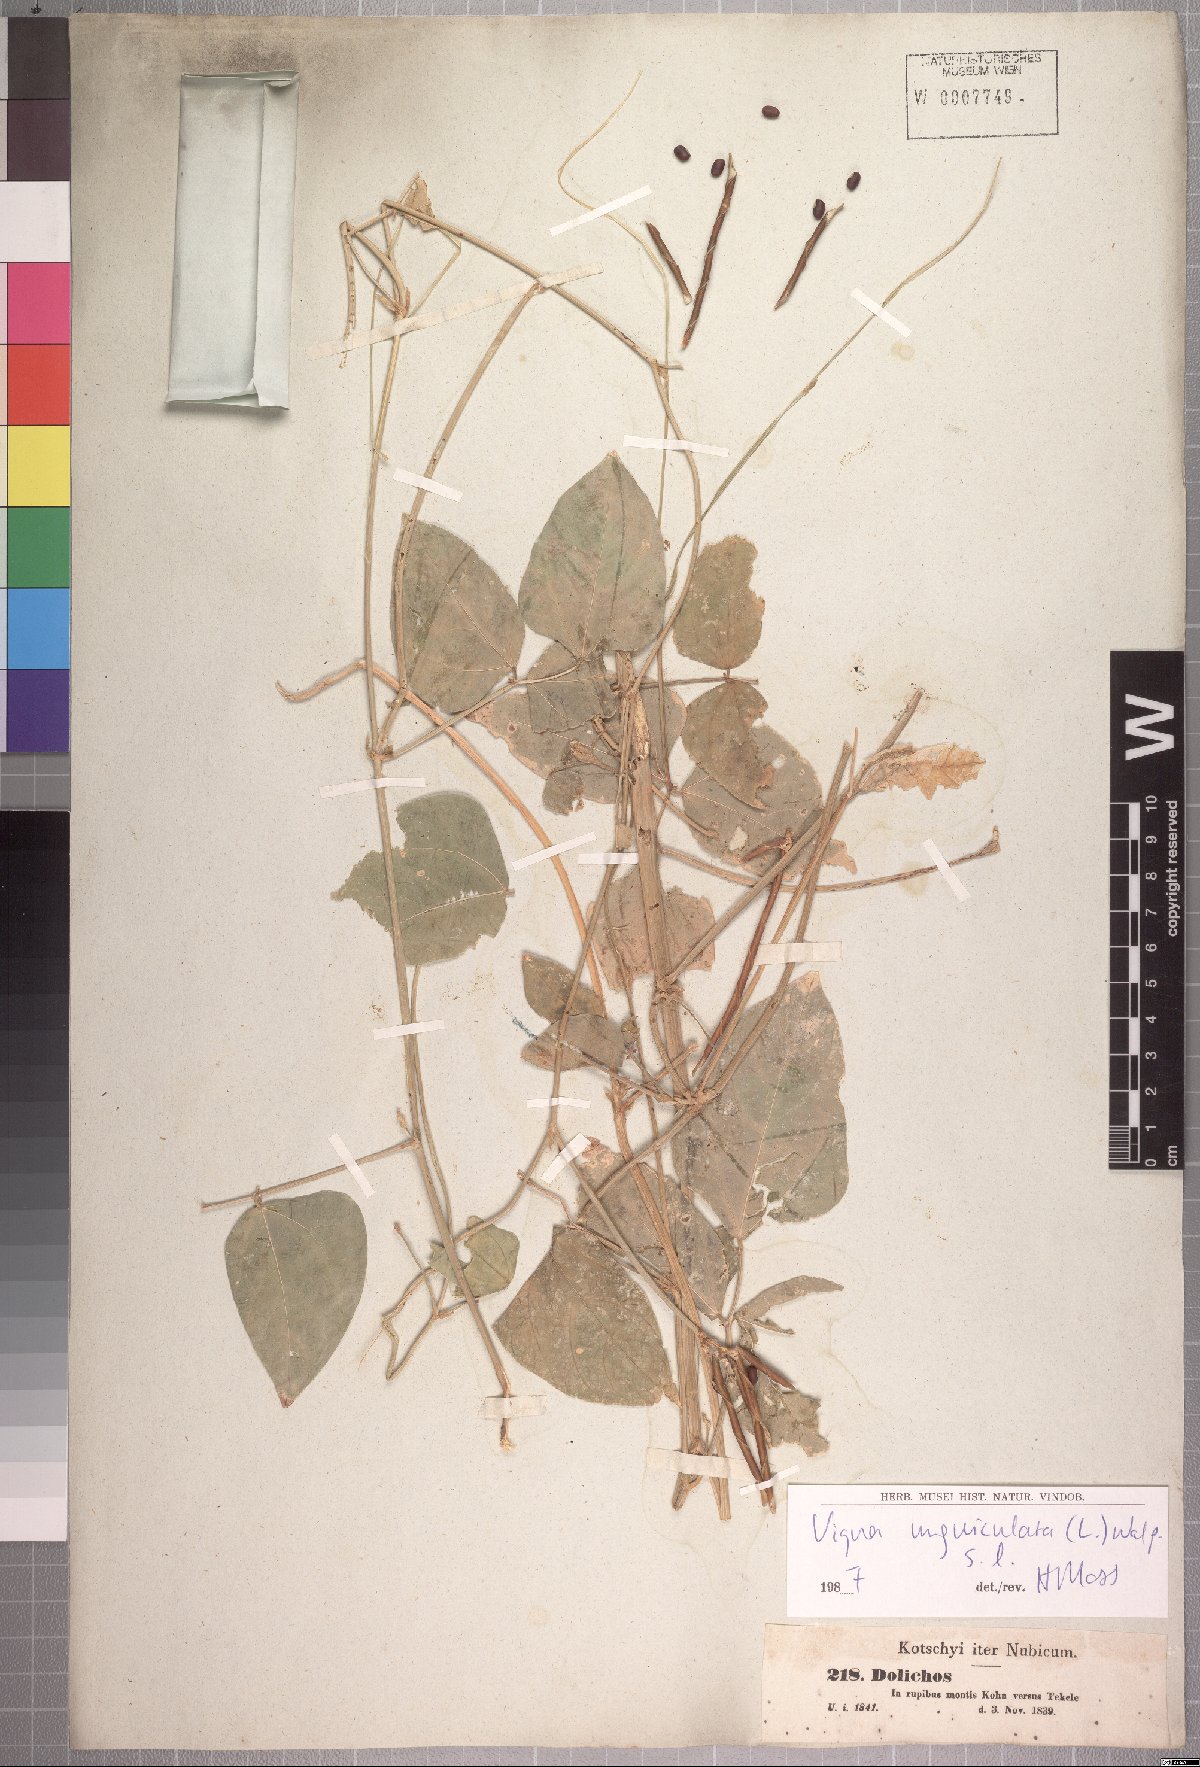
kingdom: Plantae
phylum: Tracheophyta
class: Magnoliopsida
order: Fabales
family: Fabaceae
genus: Vigna
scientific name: Vigna unguiculata
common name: Cowpea
